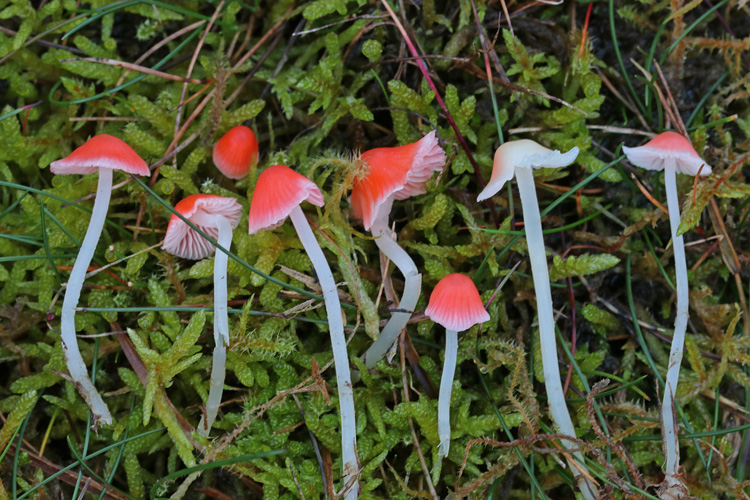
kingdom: Fungi
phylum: Basidiomycota
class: Agaricomycetes
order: Agaricales
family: Mycenaceae
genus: Atheniella
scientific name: Atheniella adonis
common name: rønnerød huesvamp
